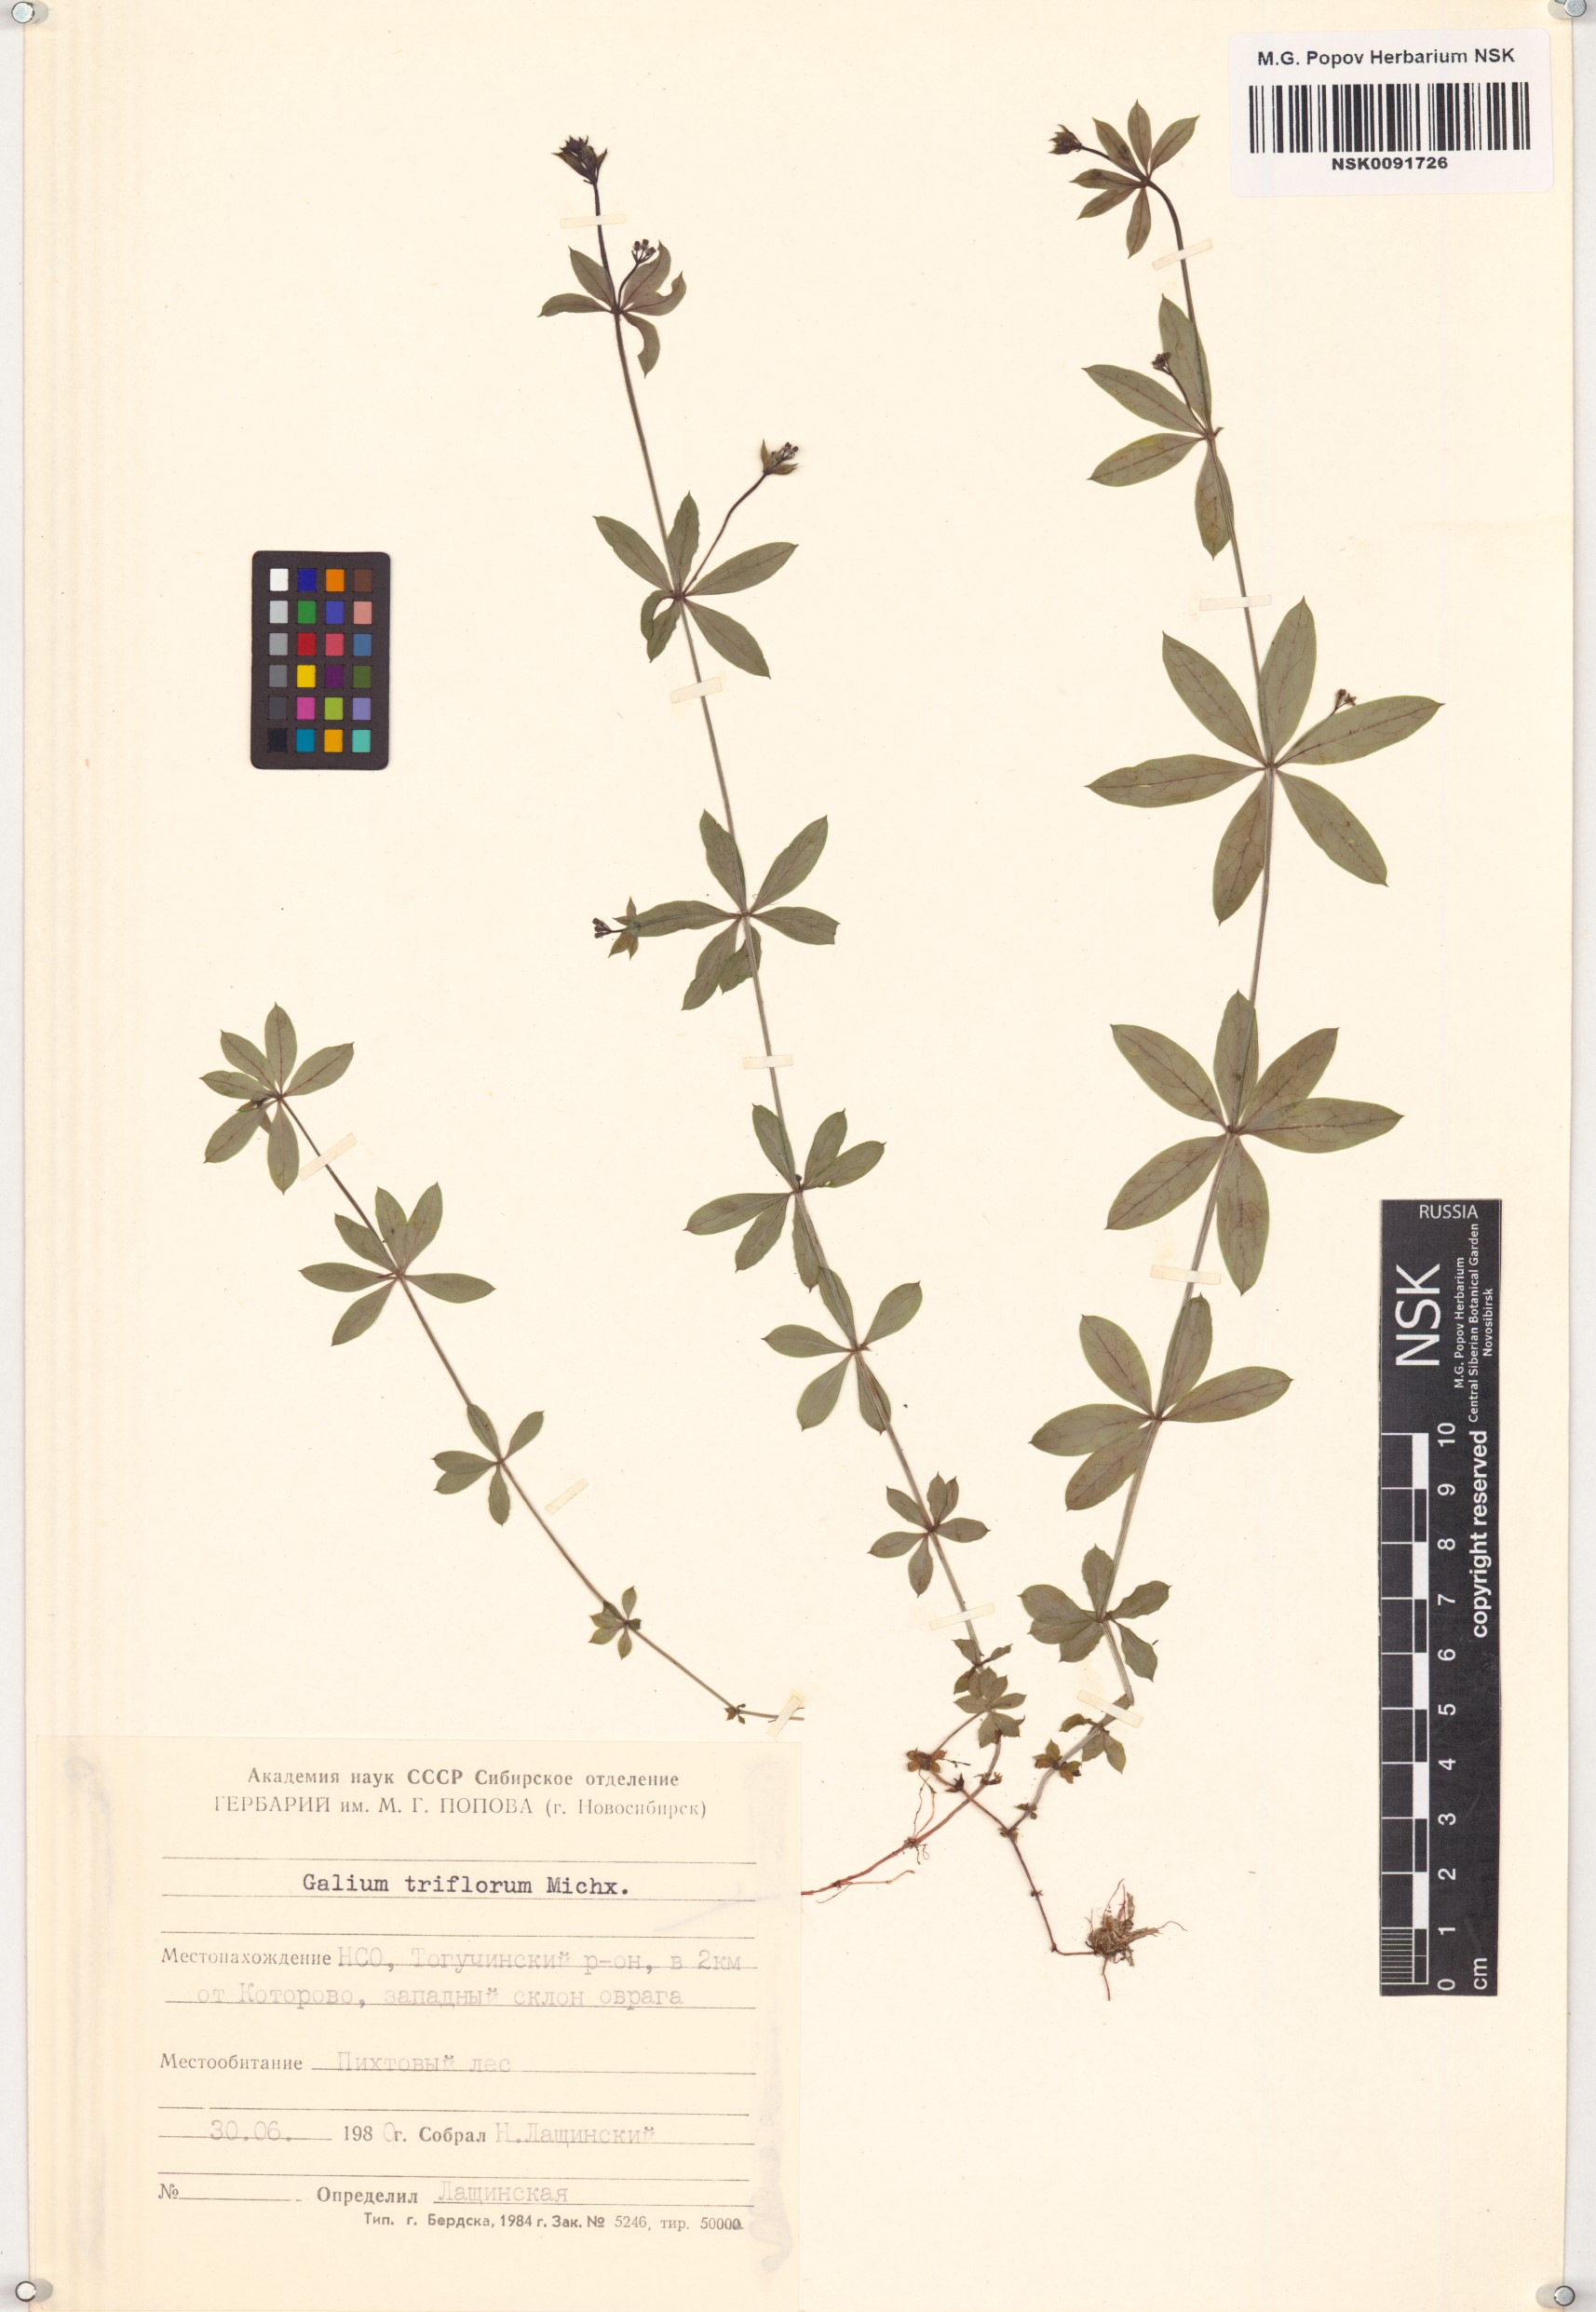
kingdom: Plantae
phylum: Tracheophyta
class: Magnoliopsida
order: Gentianales
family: Rubiaceae
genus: Galium
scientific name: Galium triflorum
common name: Fragrant bedstraw
